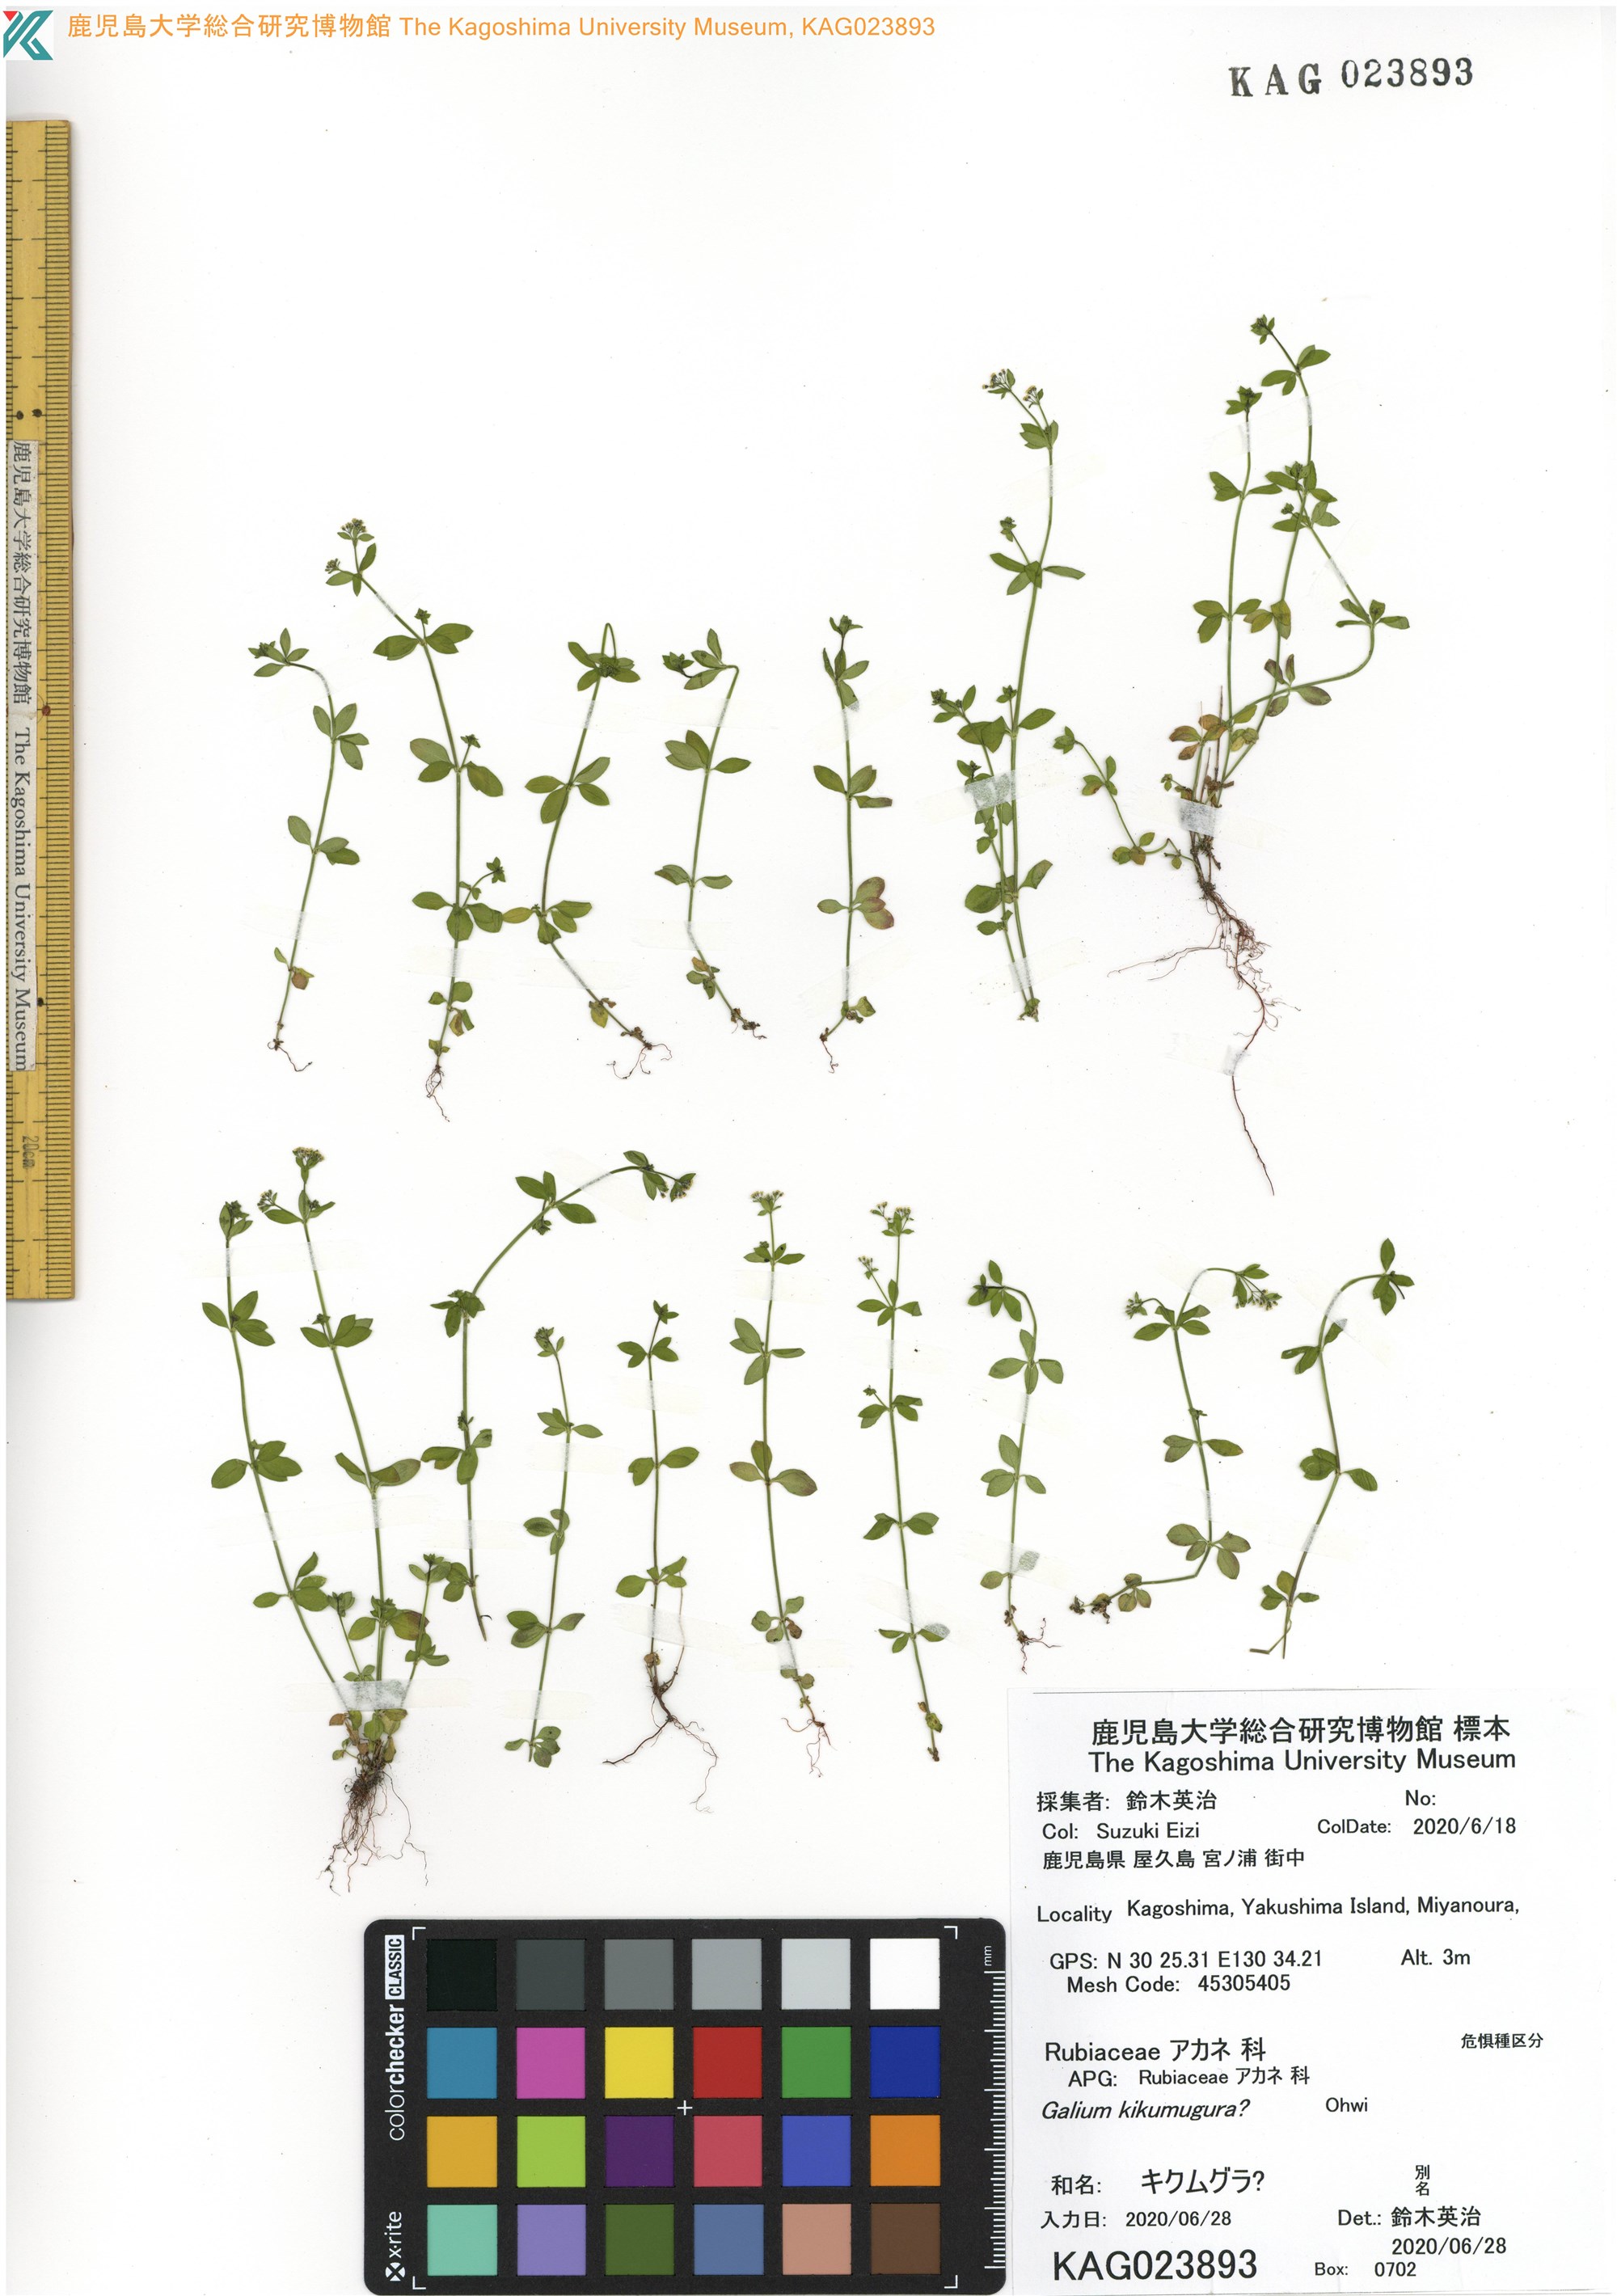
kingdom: Plantae
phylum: Tracheophyta
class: Magnoliopsida
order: Gentianales
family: Rubiaceae
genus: Galium
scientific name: Galium kikumuyura
